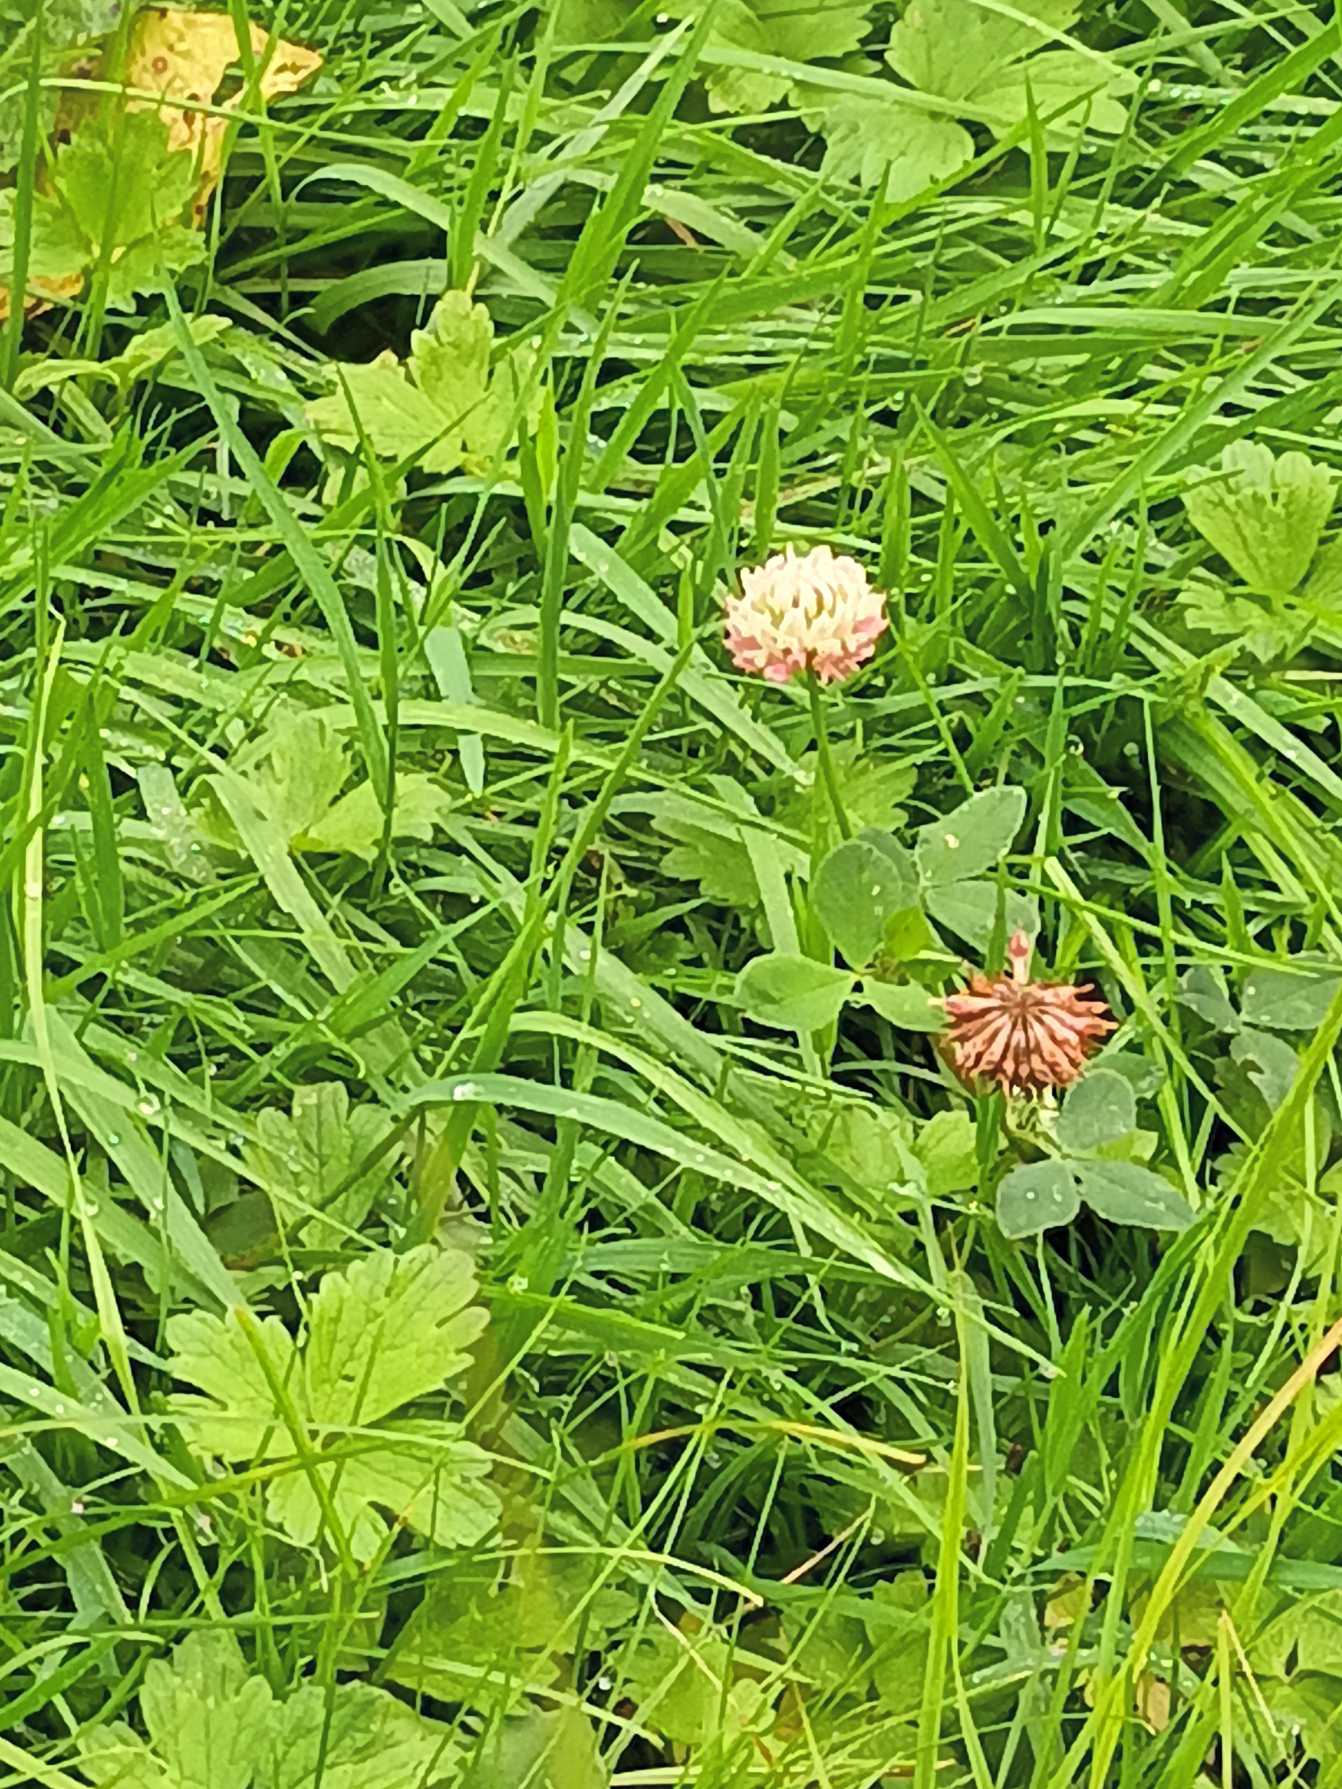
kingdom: Plantae
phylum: Tracheophyta
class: Magnoliopsida
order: Fabales
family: Fabaceae
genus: Trifolium
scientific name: Trifolium hybridum
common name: Alsike-kløver
